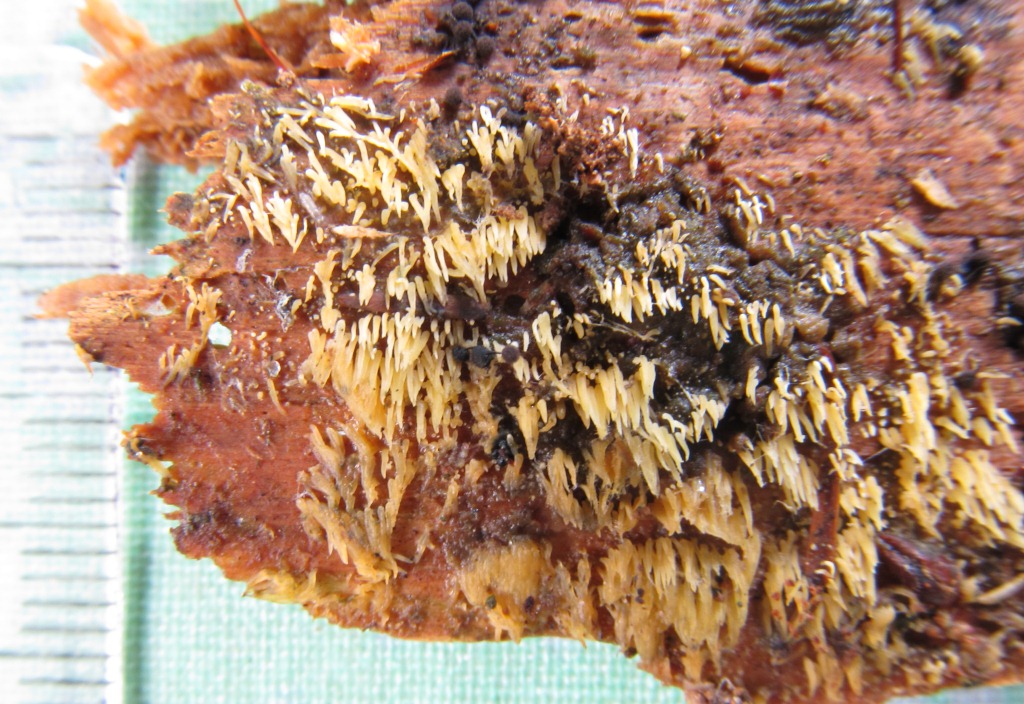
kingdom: Fungi
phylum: Basidiomycota
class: Agaricomycetes
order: Agaricales
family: Clavariaceae
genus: Mucronella
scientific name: Mucronella flava
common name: gul hængepig
